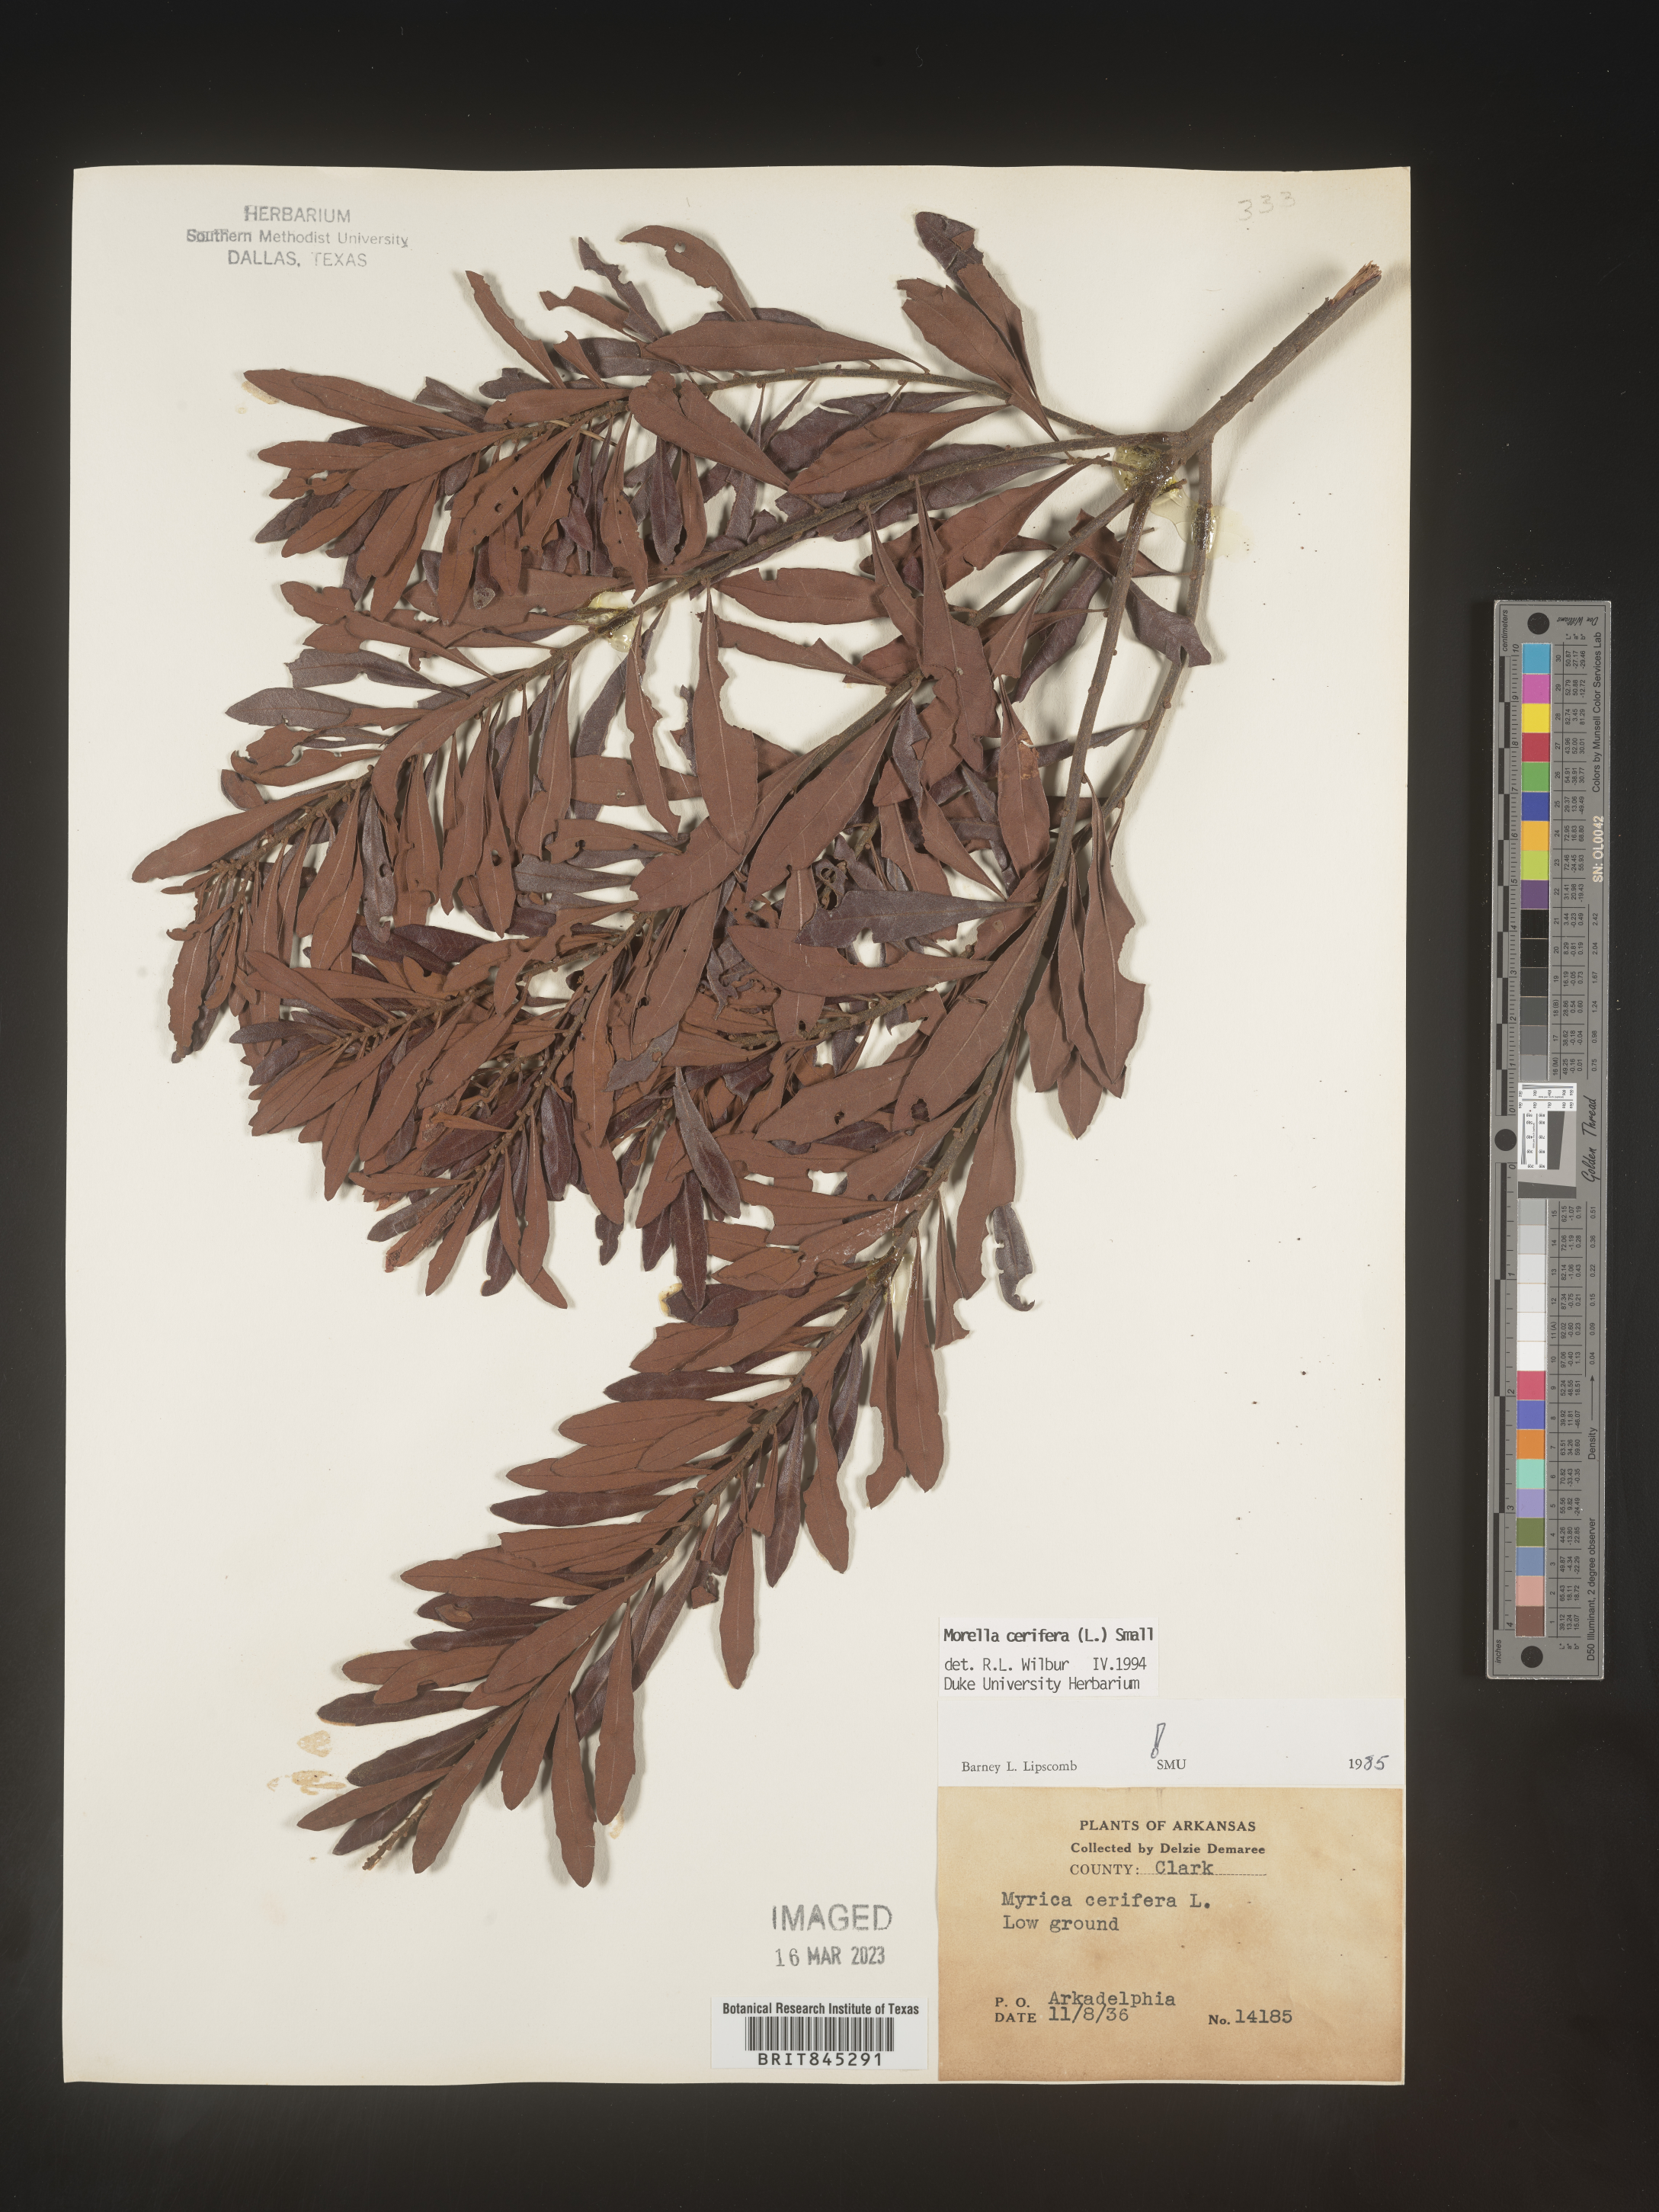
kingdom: Plantae
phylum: Tracheophyta
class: Magnoliopsida
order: Fagales
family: Myricaceae
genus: Morella
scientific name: Morella cerifera
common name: Wax myrtle
